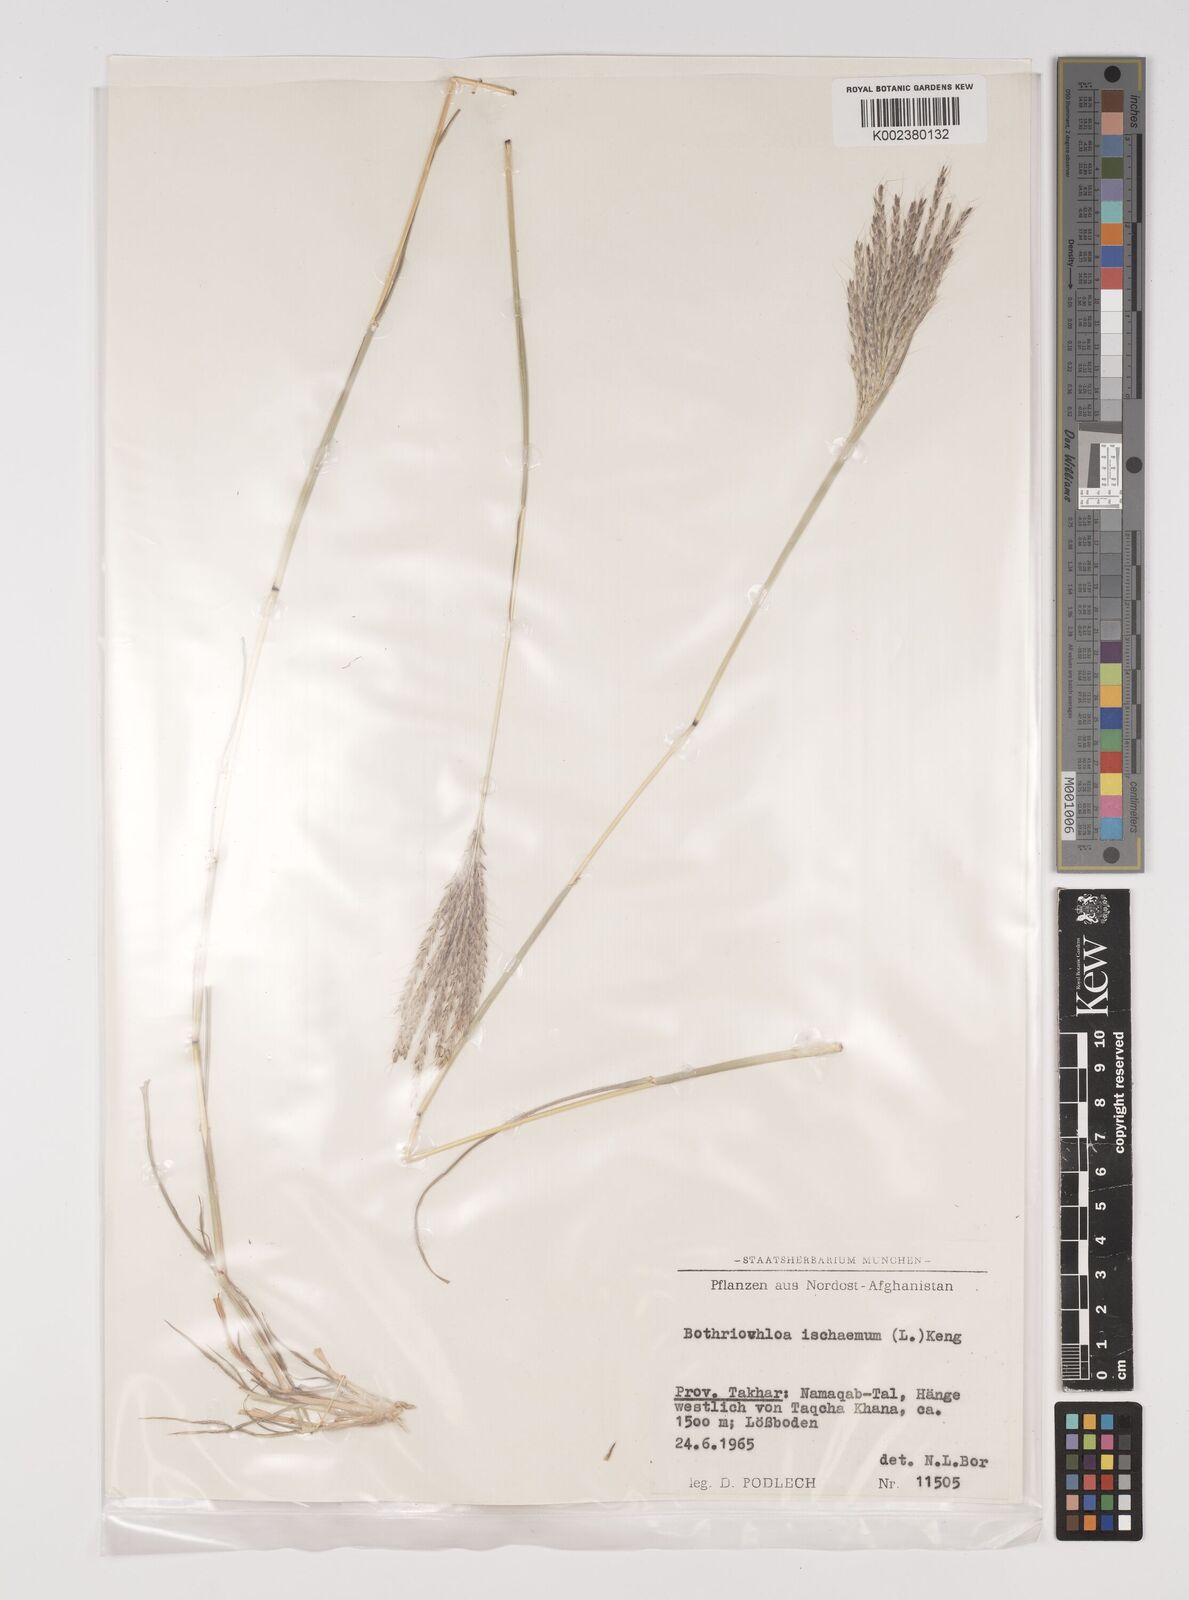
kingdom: Plantae
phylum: Tracheophyta
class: Liliopsida
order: Poales
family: Poaceae
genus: Bothriochloa
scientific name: Bothriochloa ischaemum
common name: Yellow bluestem
